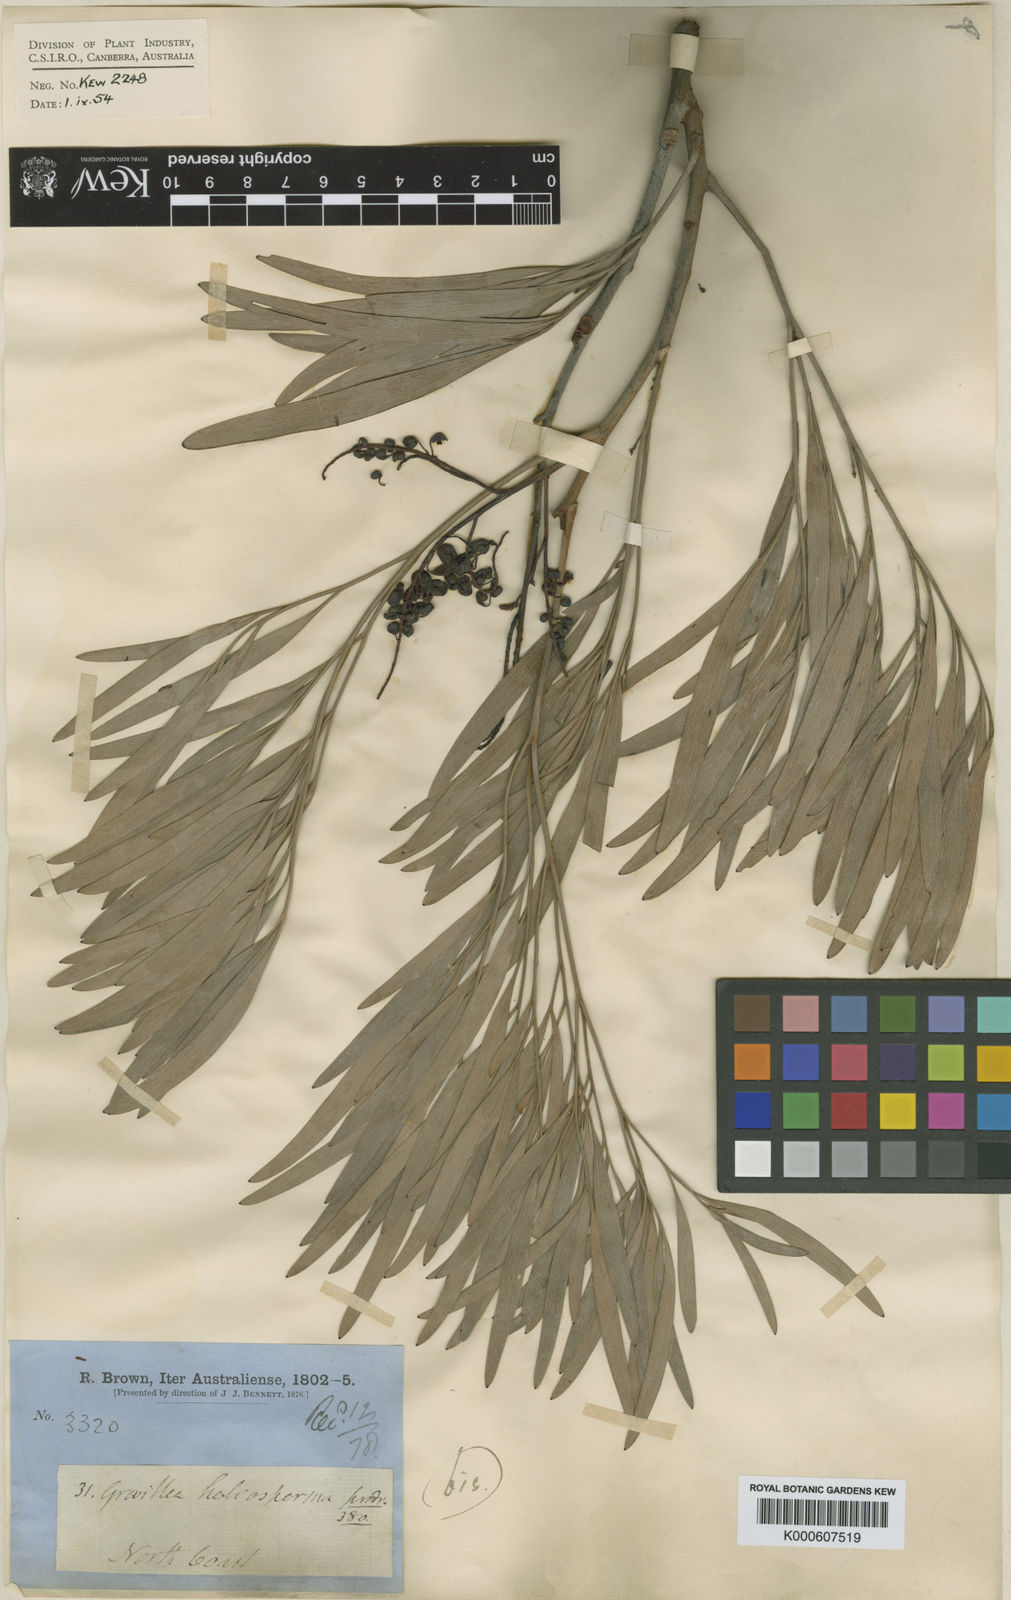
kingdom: Plantae
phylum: Tracheophyta
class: Magnoliopsida
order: Proteales
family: Proteaceae
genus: Grevillea
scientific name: Grevillea heliosperma
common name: Rock grevillea
